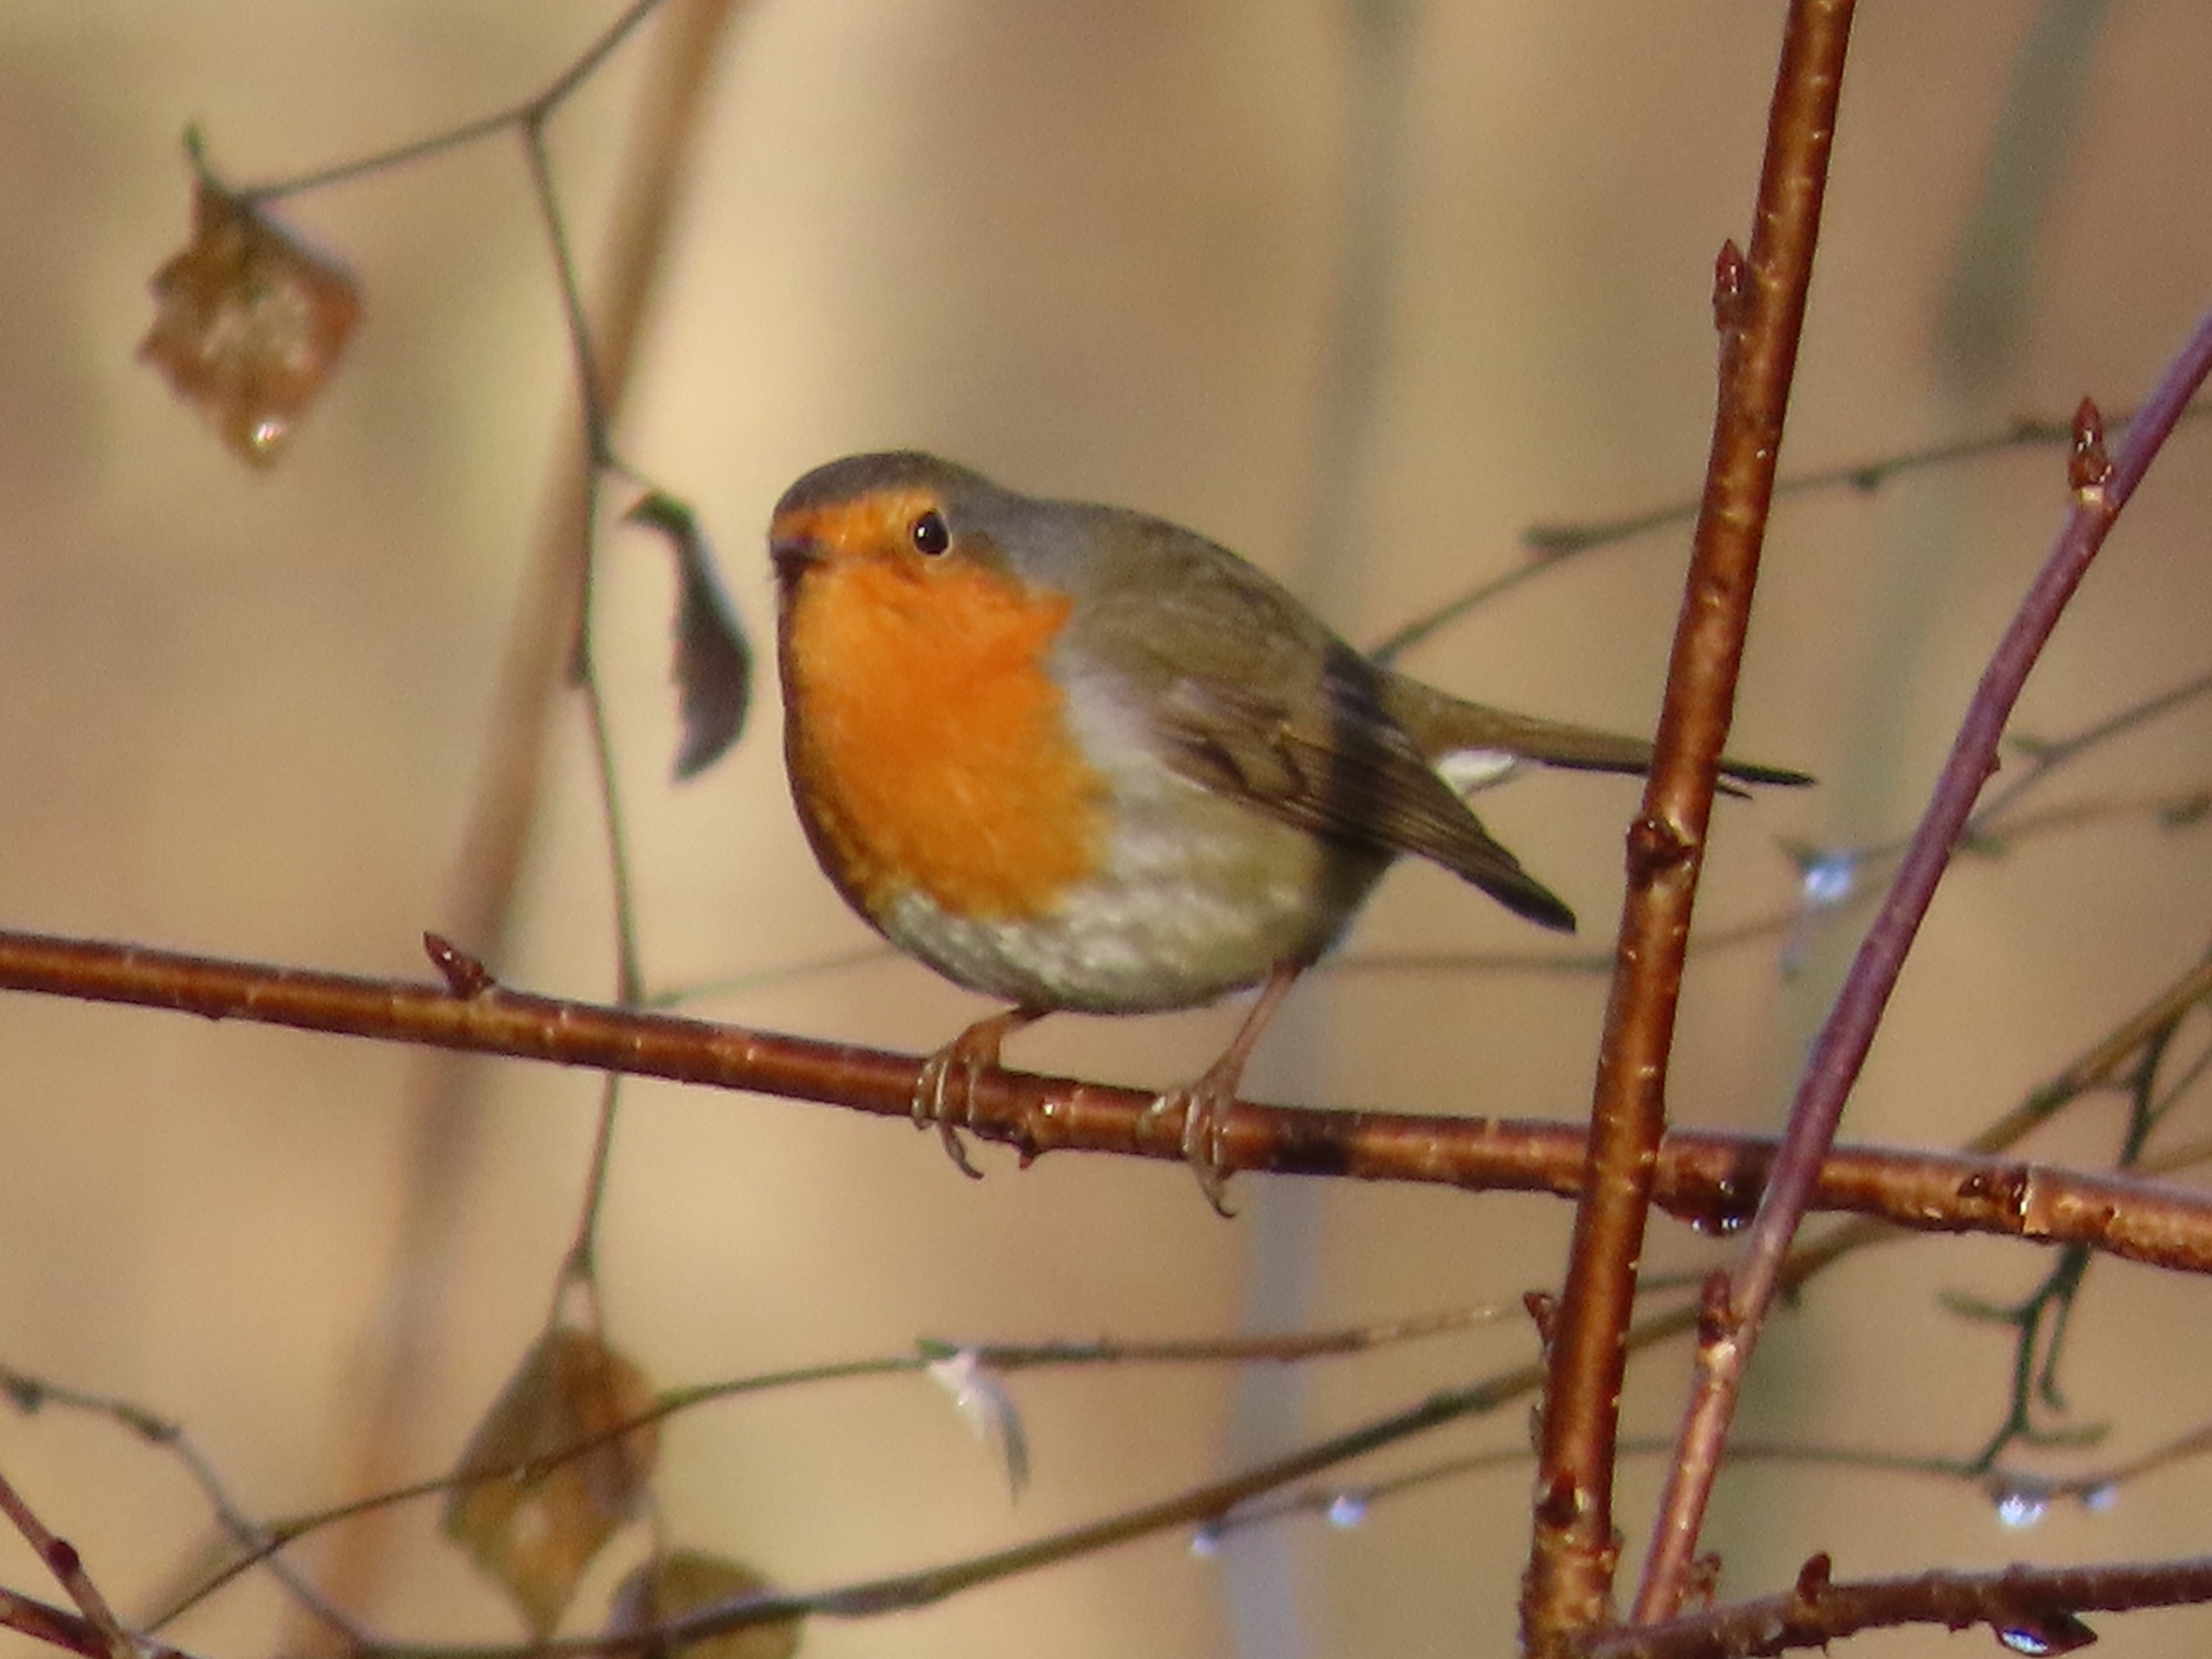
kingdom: Animalia
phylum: Chordata
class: Aves
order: Passeriformes
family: Muscicapidae
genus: Erithacus
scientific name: Erithacus rubecula
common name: Rødhals/rødkælk
